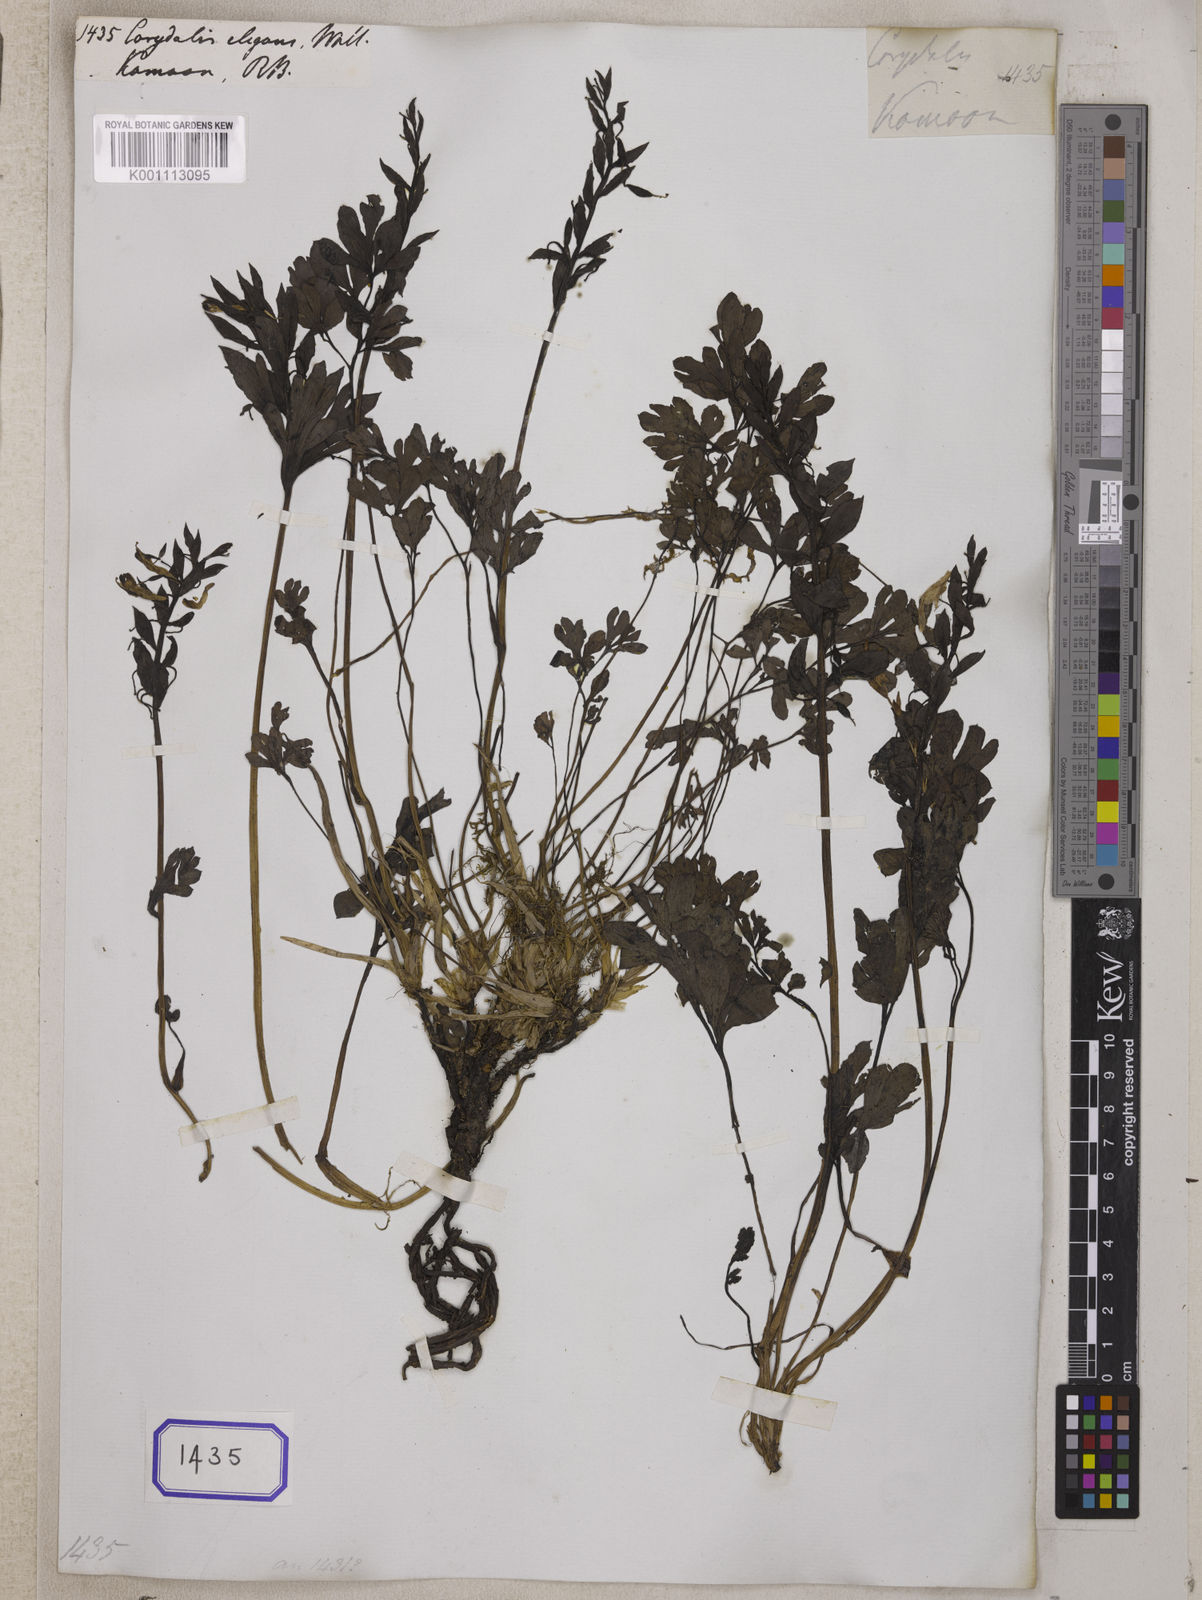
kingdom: Plantae
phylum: Tracheophyta
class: Magnoliopsida
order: Ranunculales
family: Papaveraceae
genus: Corydalis
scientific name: Corydalis
